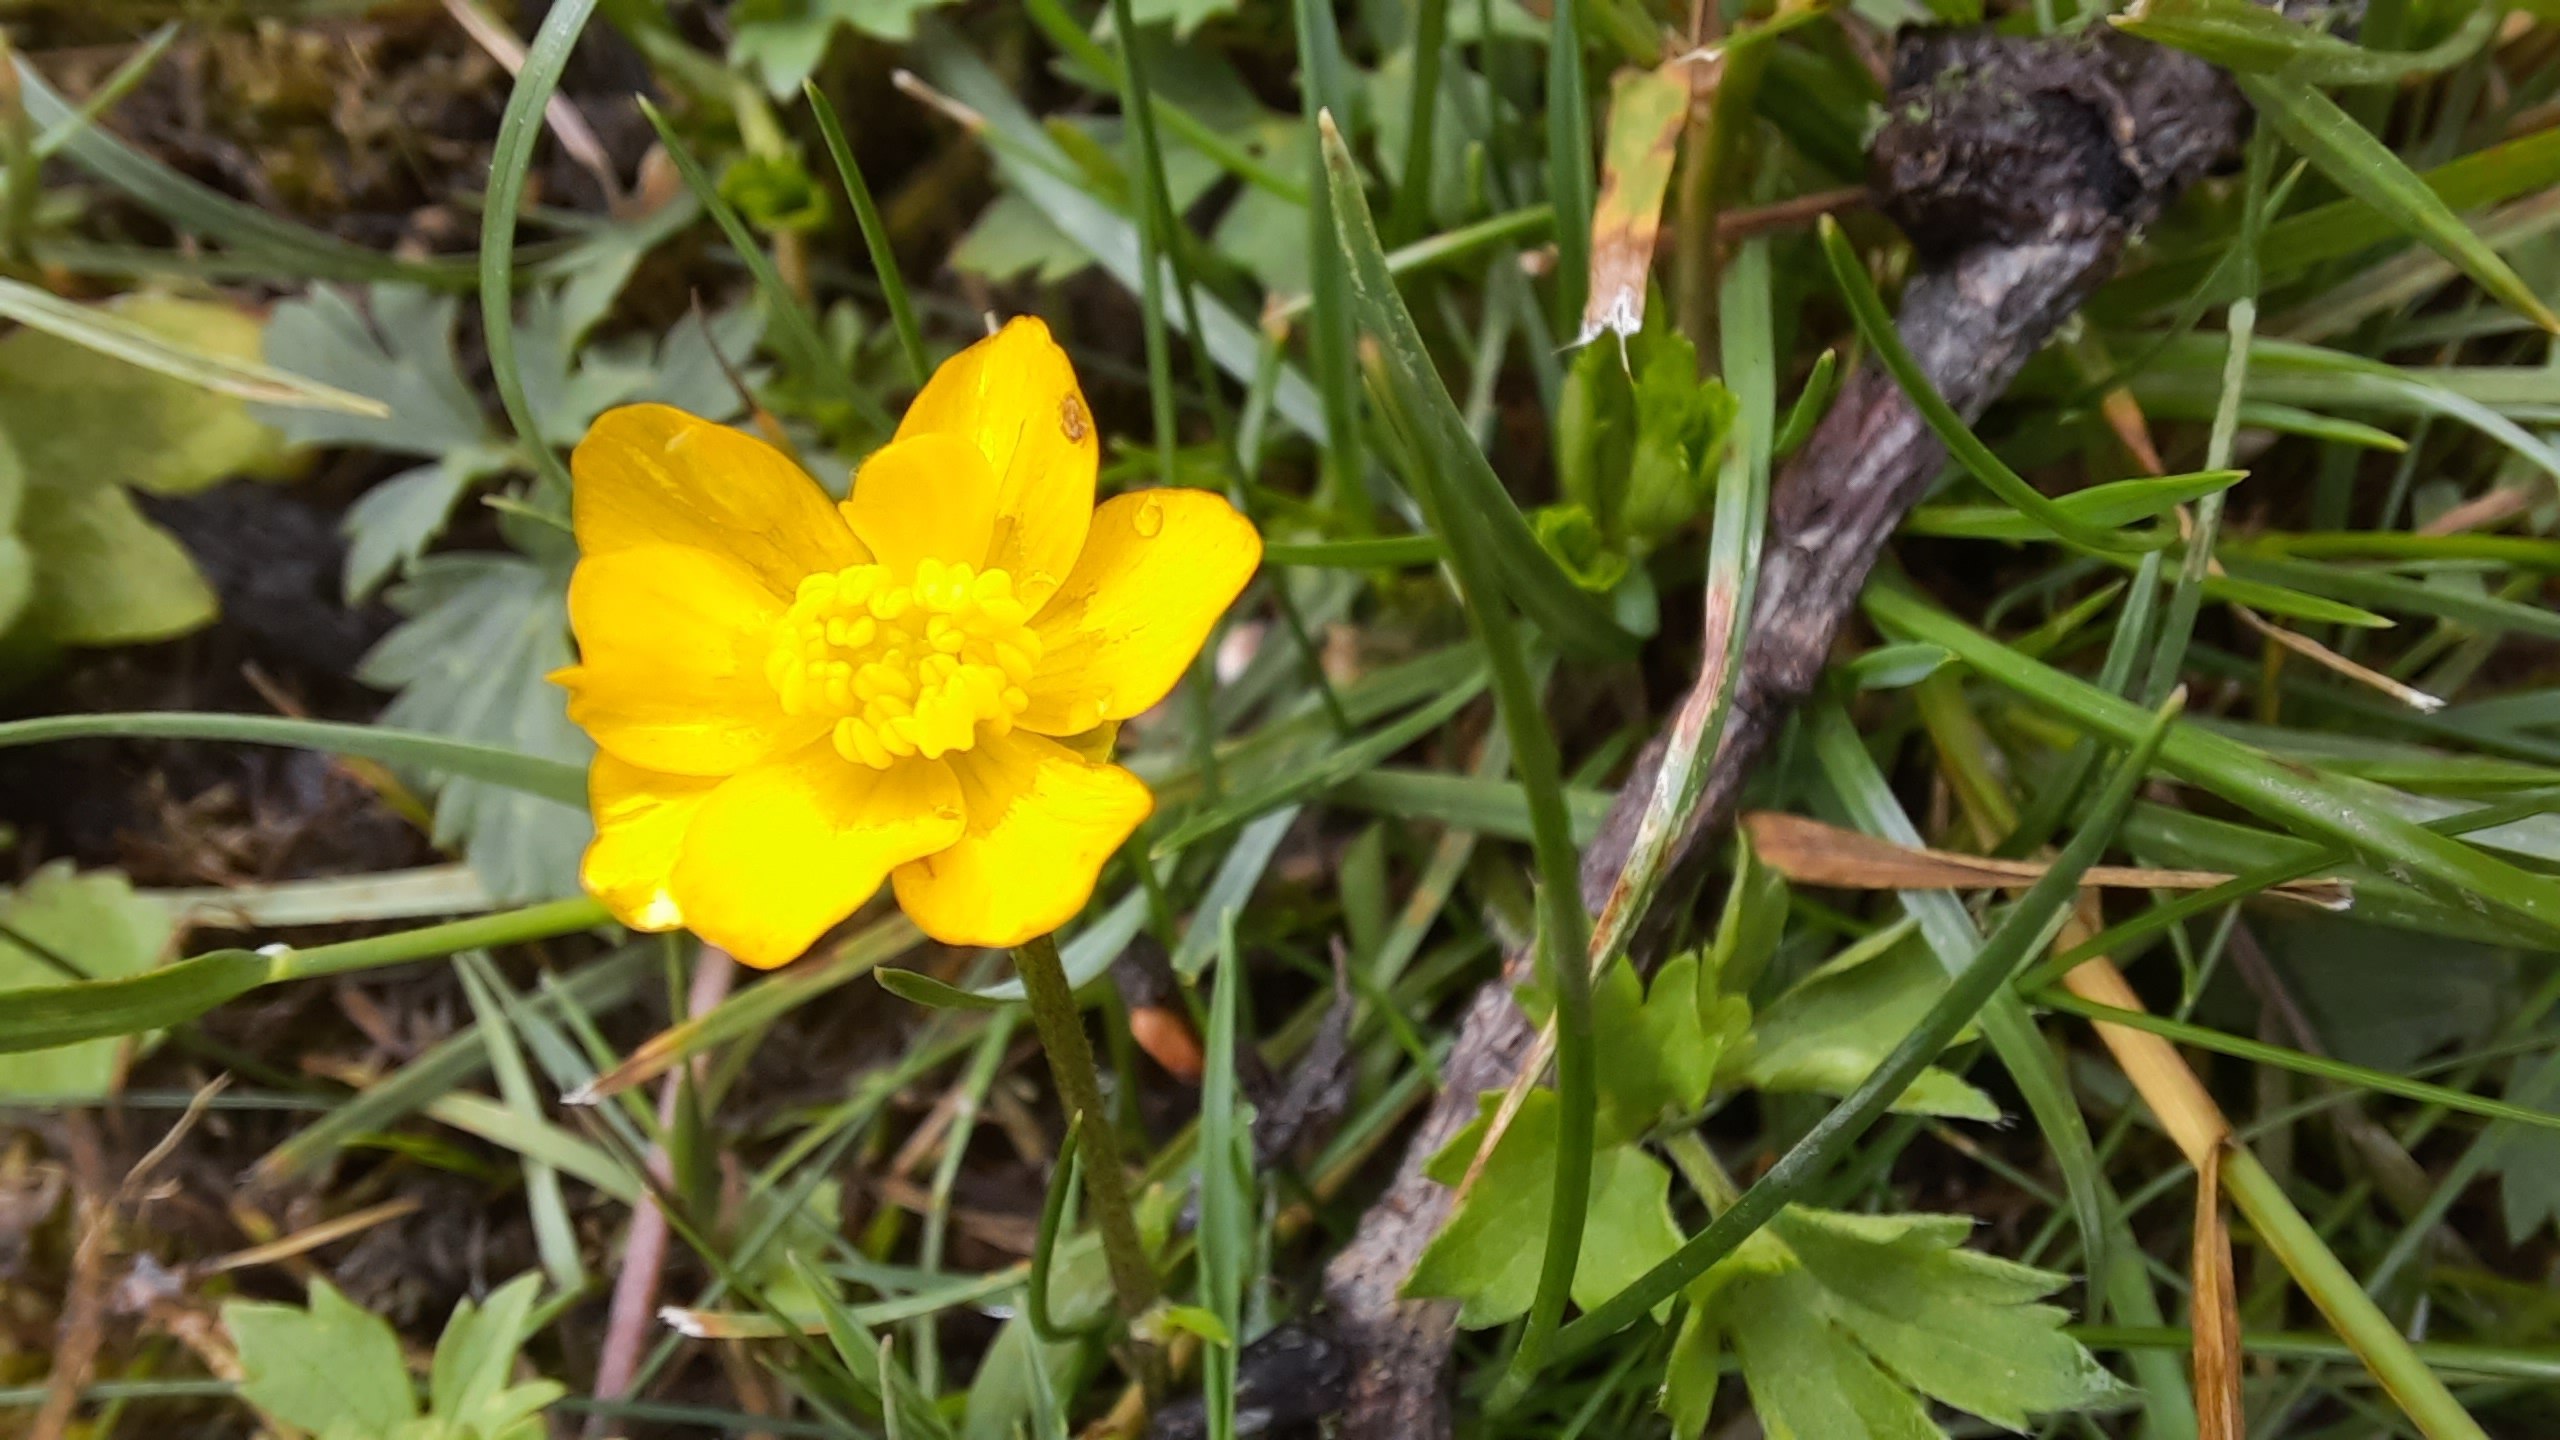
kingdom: Plantae
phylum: Tracheophyta
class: Magnoliopsida
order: Ranunculales
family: Ranunculaceae
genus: Ranunculus
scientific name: Ranunculus repens
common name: Lav ranunkel
